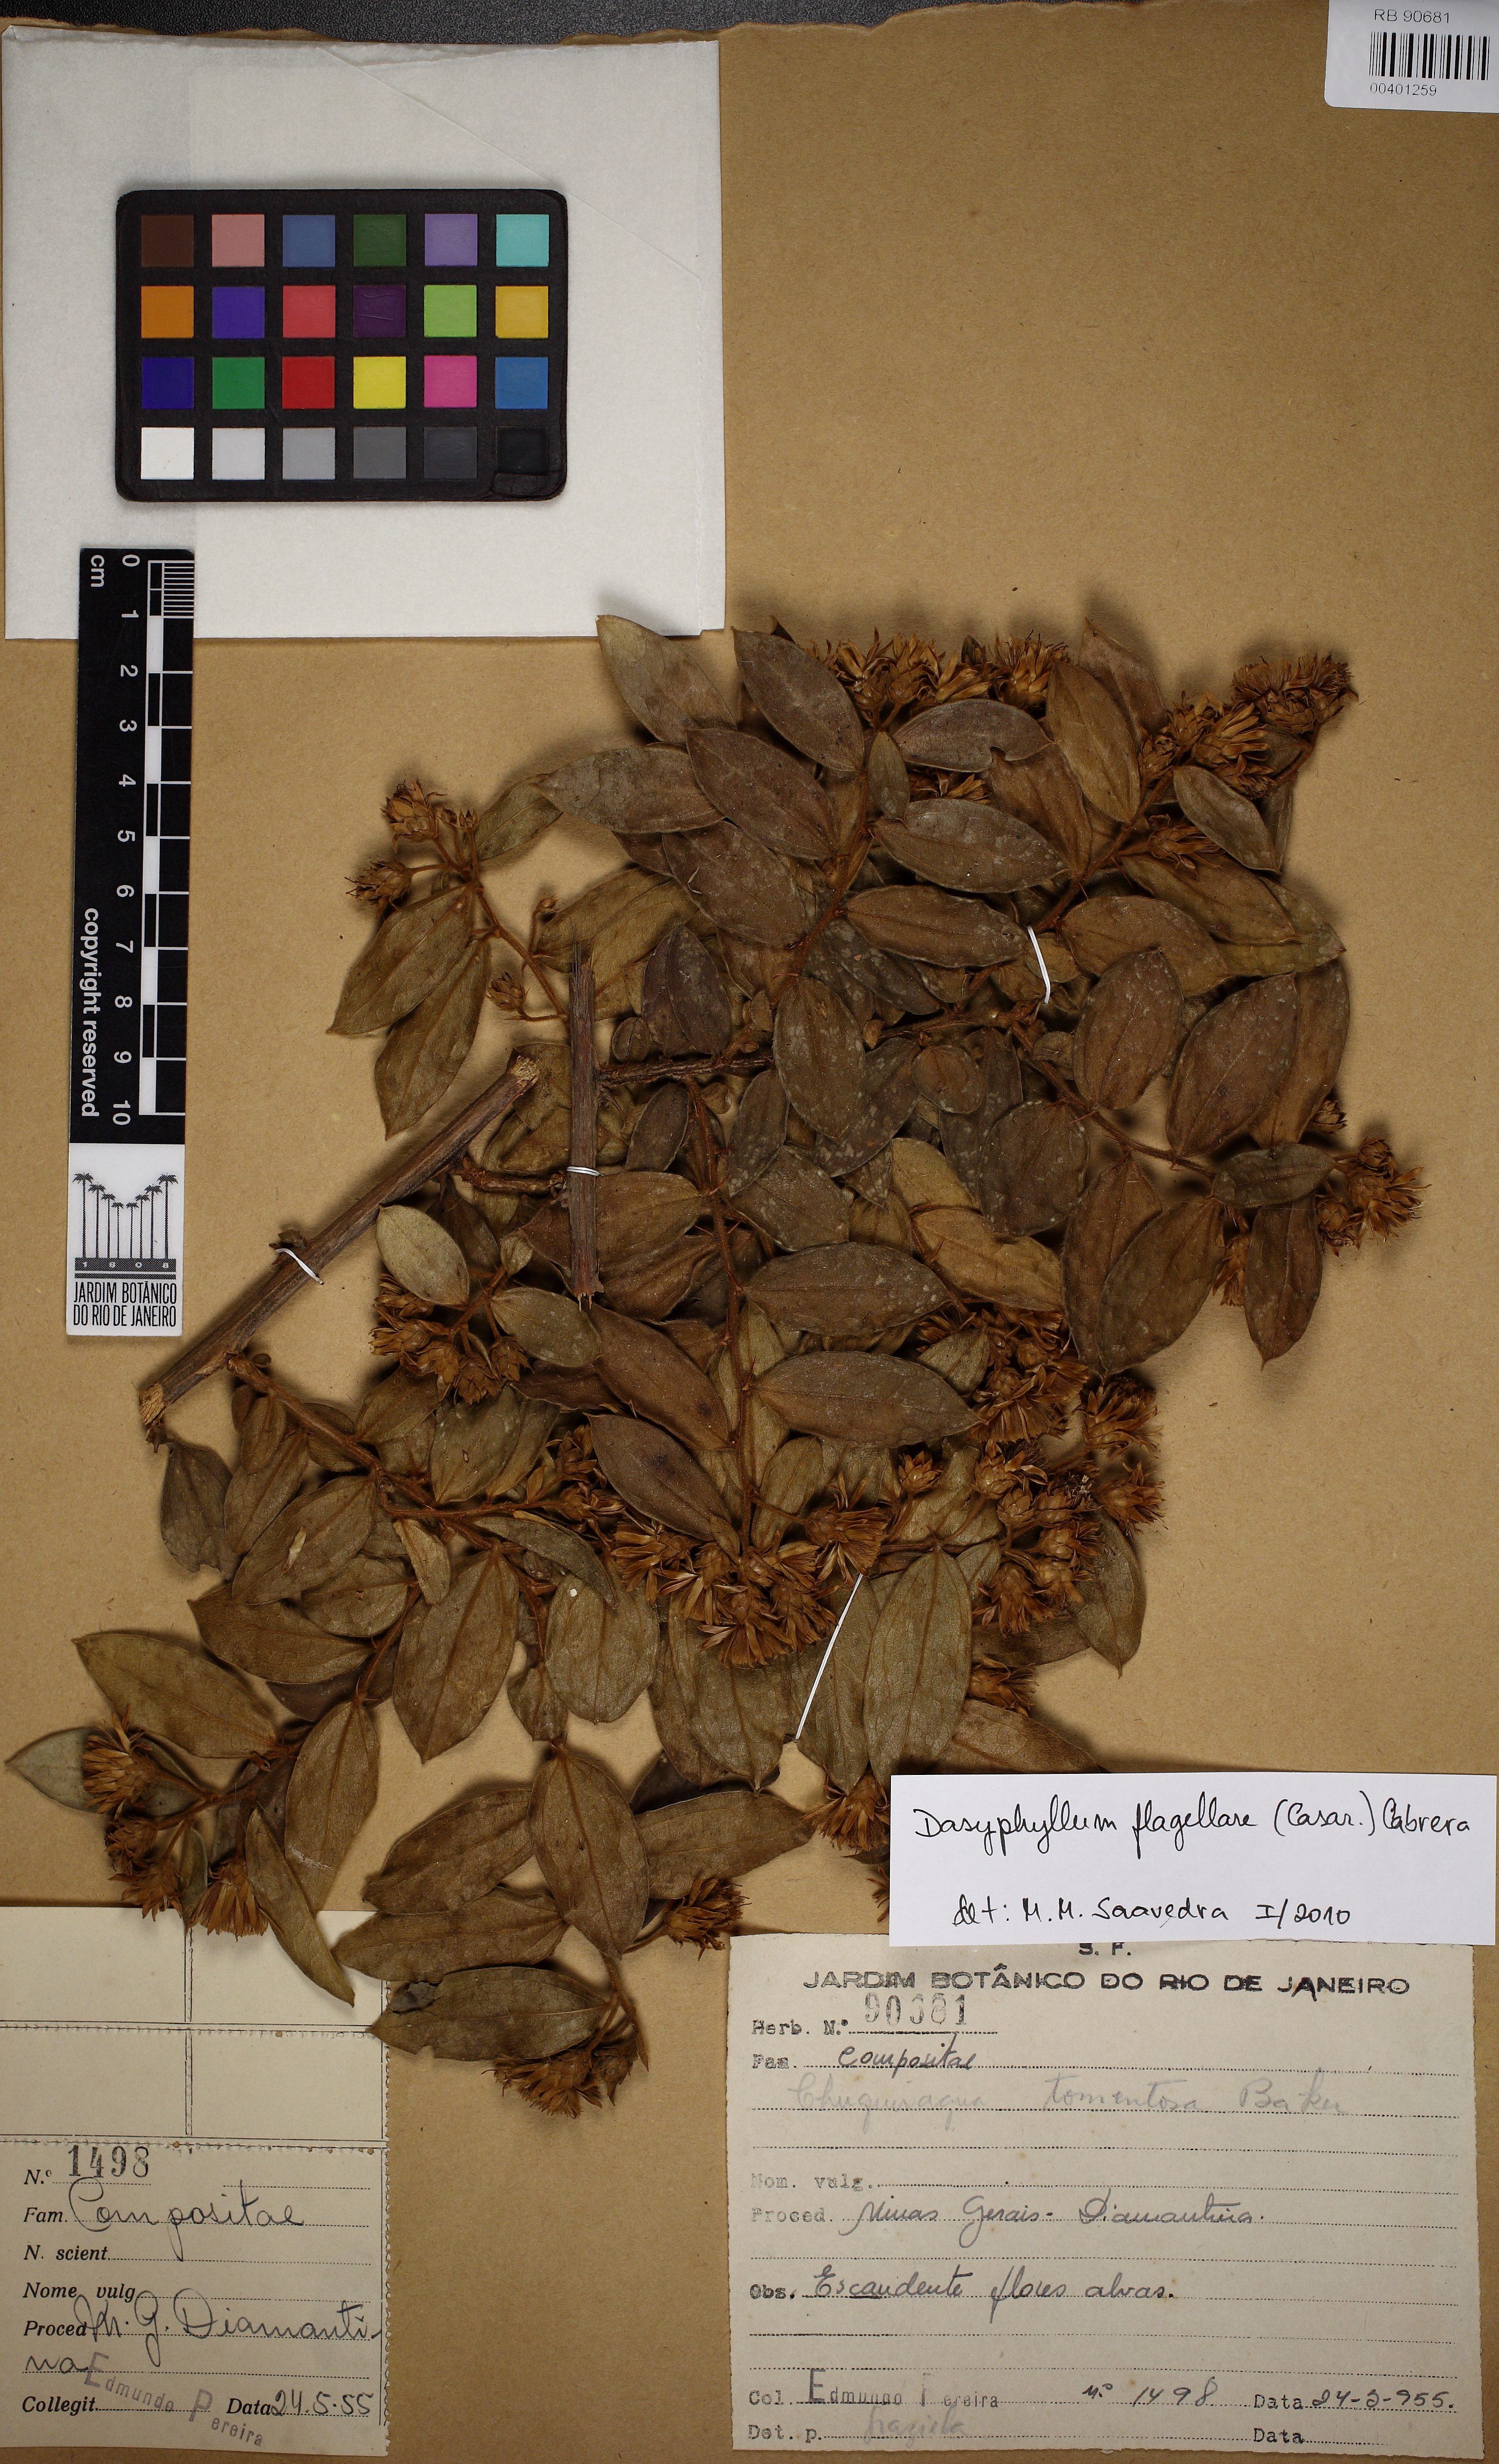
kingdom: Plantae
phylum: Tracheophyta
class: Magnoliopsida
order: Asterales
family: Asteraceae
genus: Dasyphyllum
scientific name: Dasyphyllum flagellare
